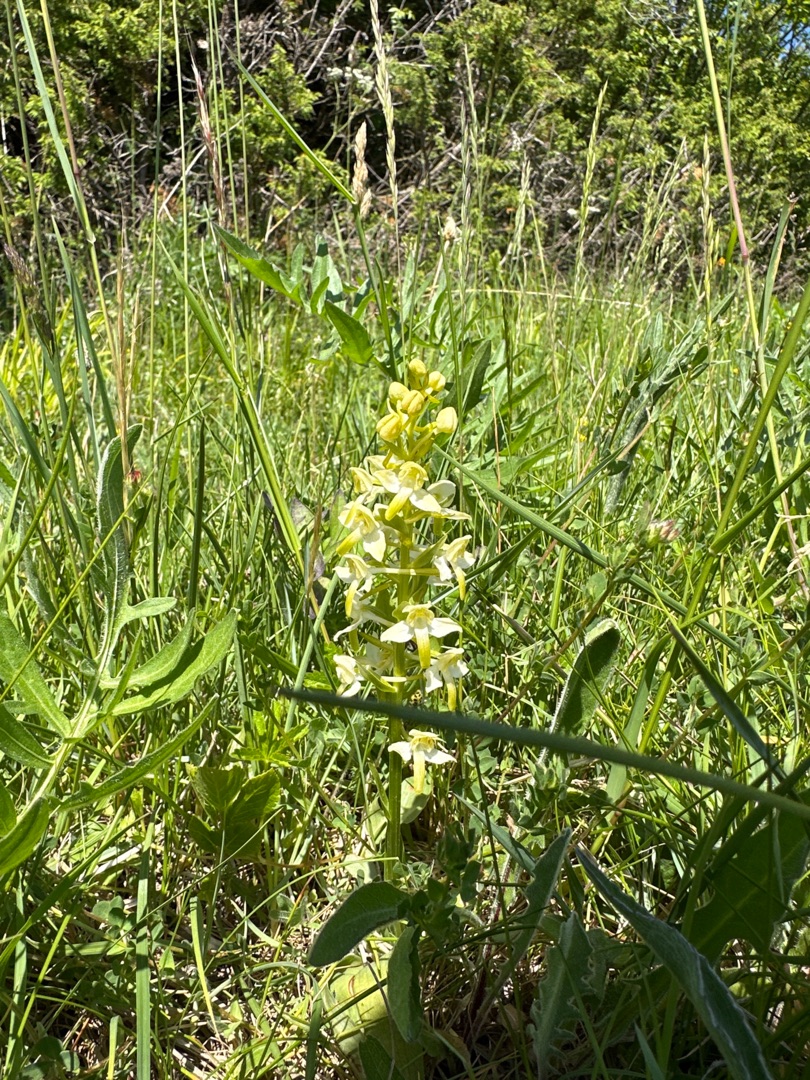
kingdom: Plantae
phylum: Tracheophyta
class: Liliopsida
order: Asparagales
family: Orchidaceae
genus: Platanthera
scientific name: Platanthera chlorantha
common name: Skov-gøgelilje
